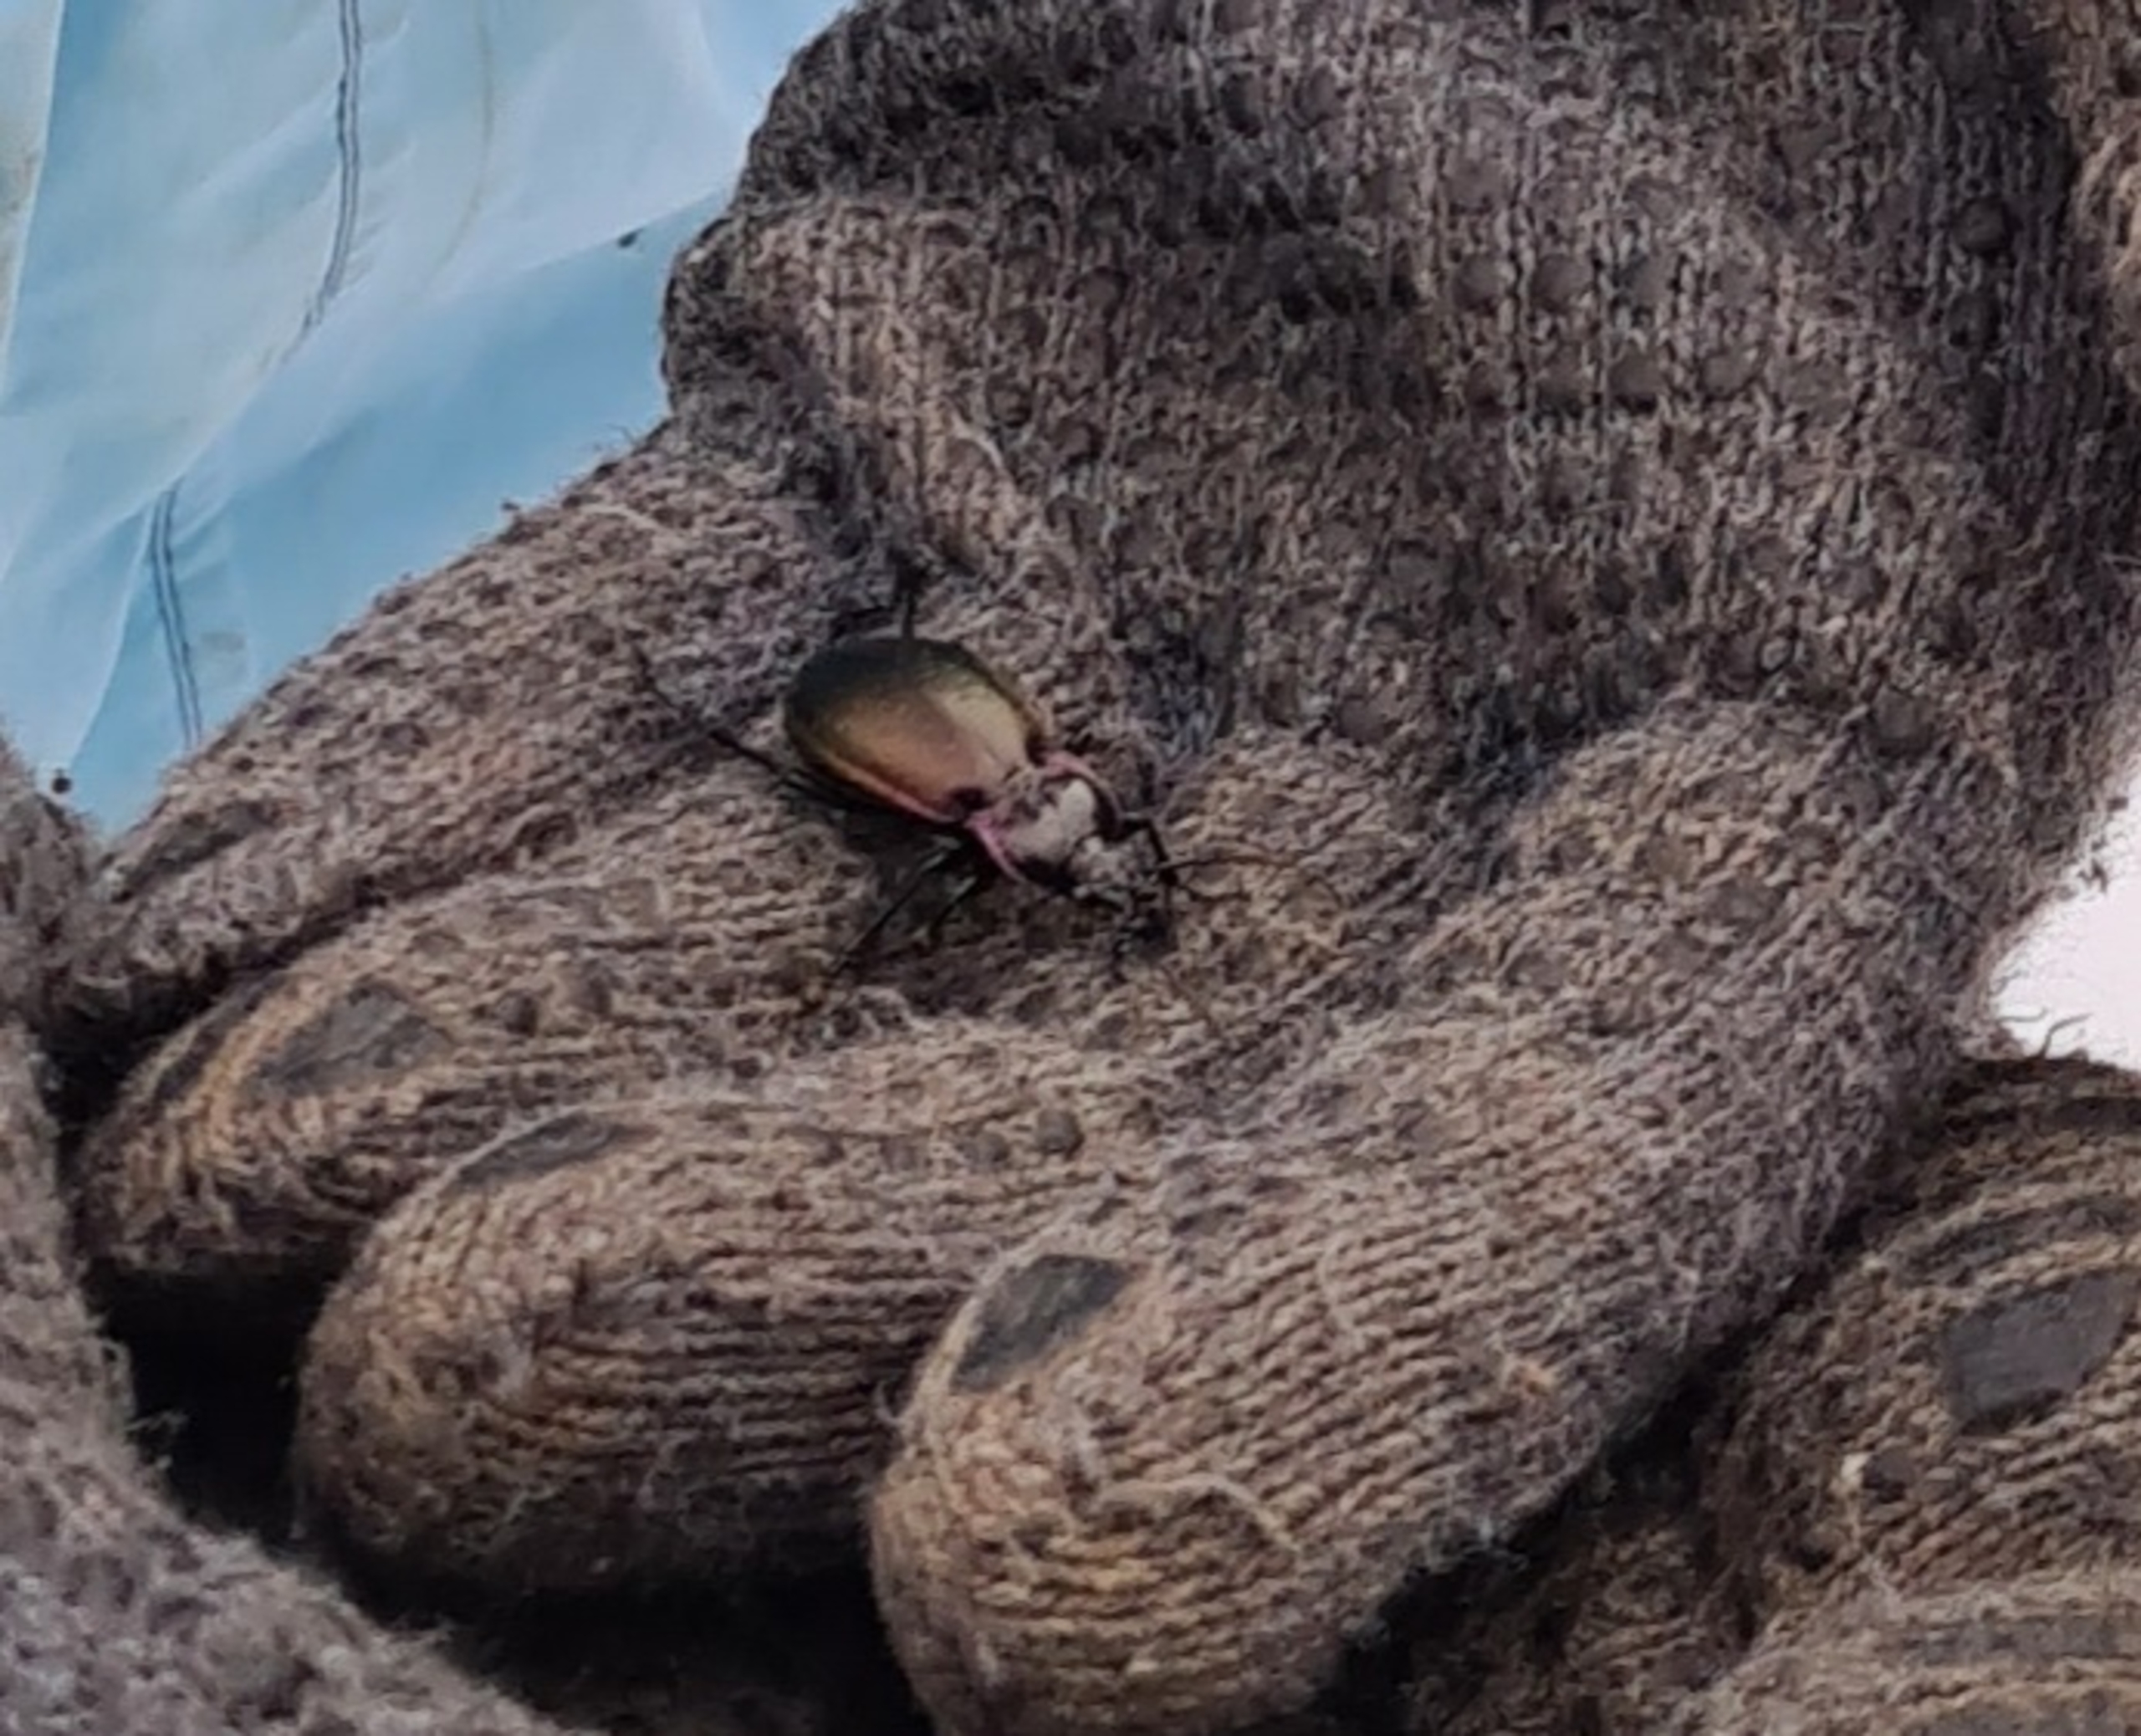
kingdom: Animalia
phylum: Arthropoda
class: Insecta
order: Coleoptera
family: Carabidae
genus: Carabus
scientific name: Carabus nemoralis
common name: Kratløber
